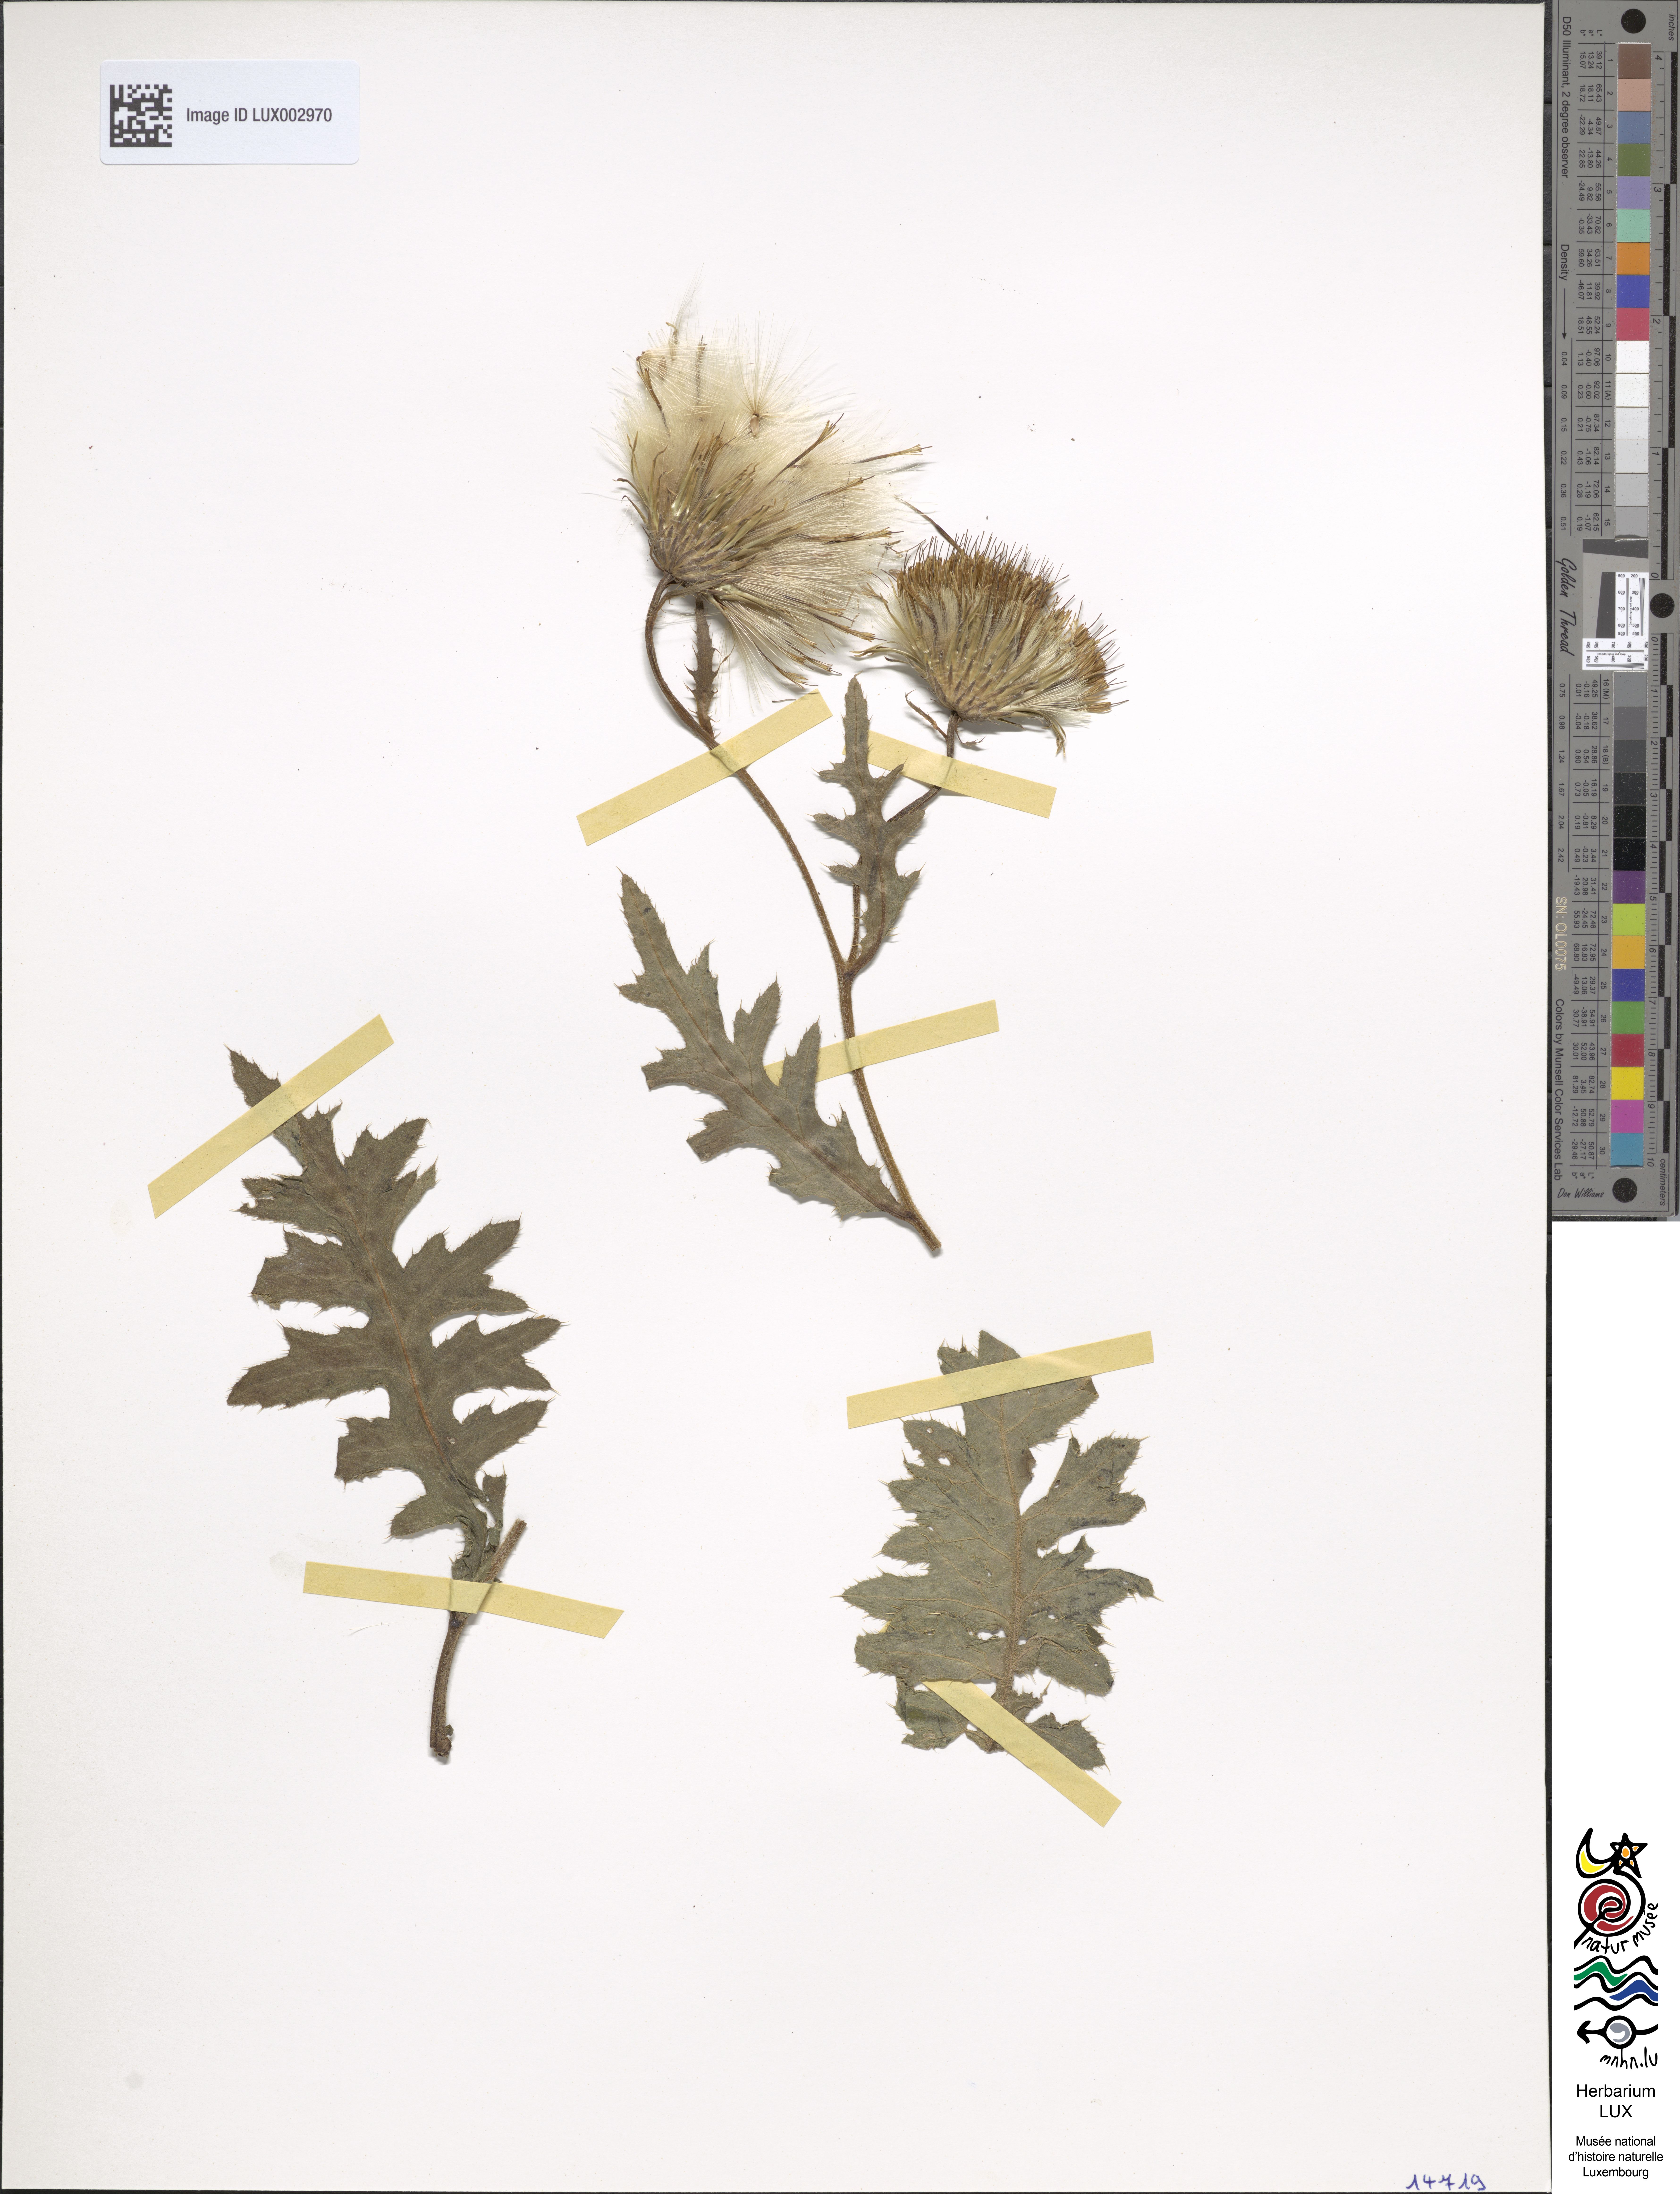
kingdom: Plantae
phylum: Tracheophyta
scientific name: Tracheophyta
